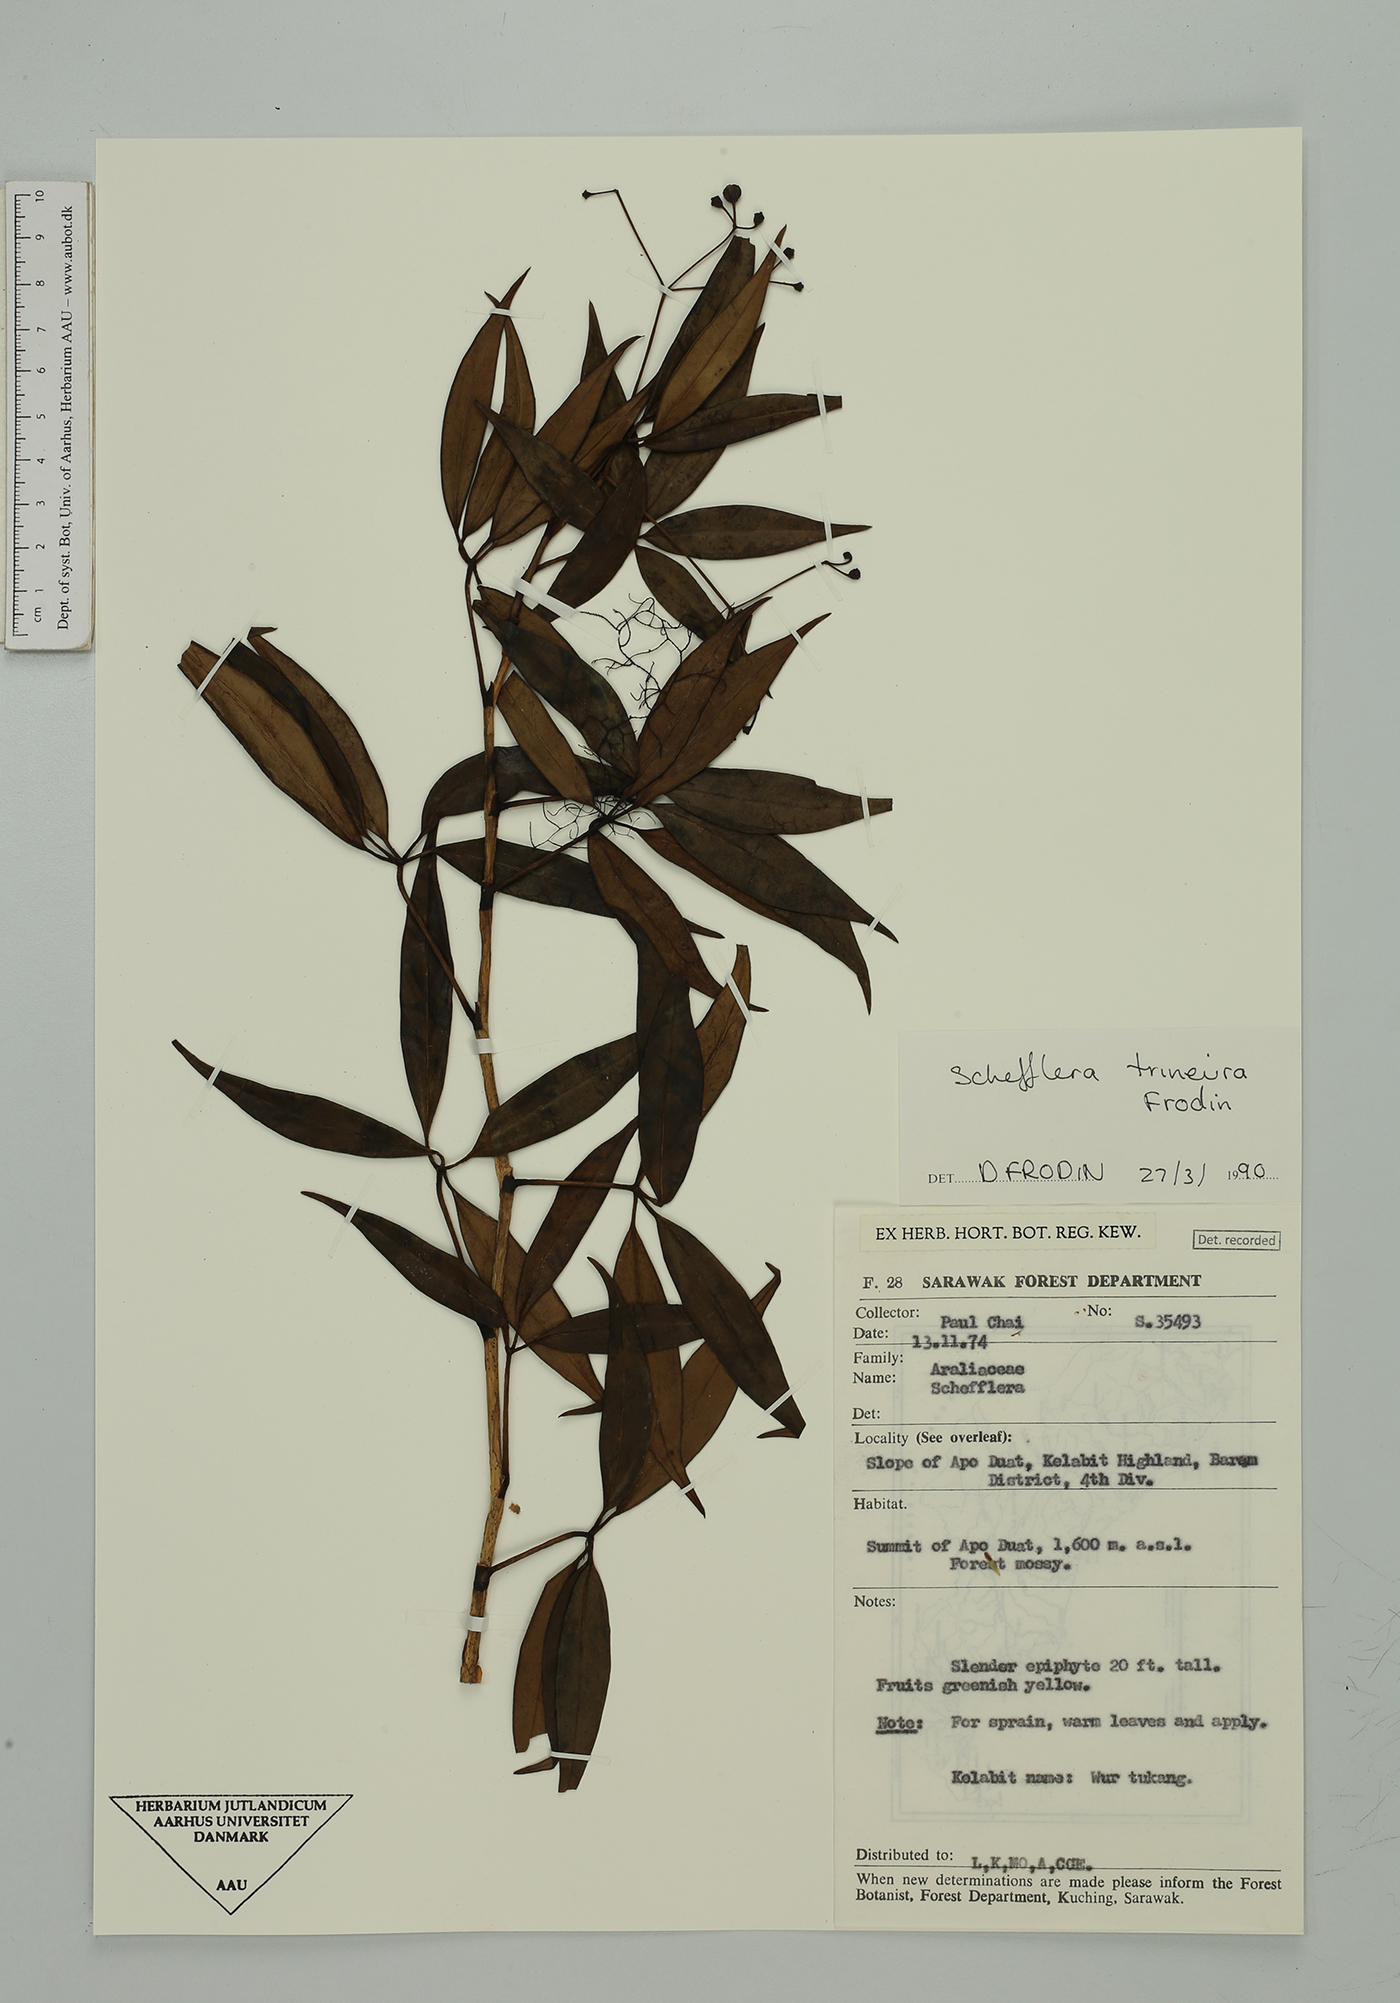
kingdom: Plantae
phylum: Tracheophyta
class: Magnoliopsida
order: Apiales
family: Araliaceae
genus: Heptapleurum
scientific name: Heptapleurum trineurum
